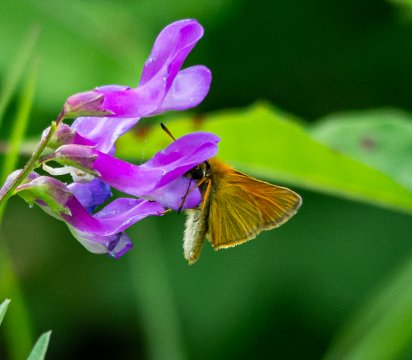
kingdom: Animalia
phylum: Arthropoda
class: Insecta
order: Lepidoptera
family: Hesperiidae
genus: Thymelicus
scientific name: Thymelicus lineola
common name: European Skipper
